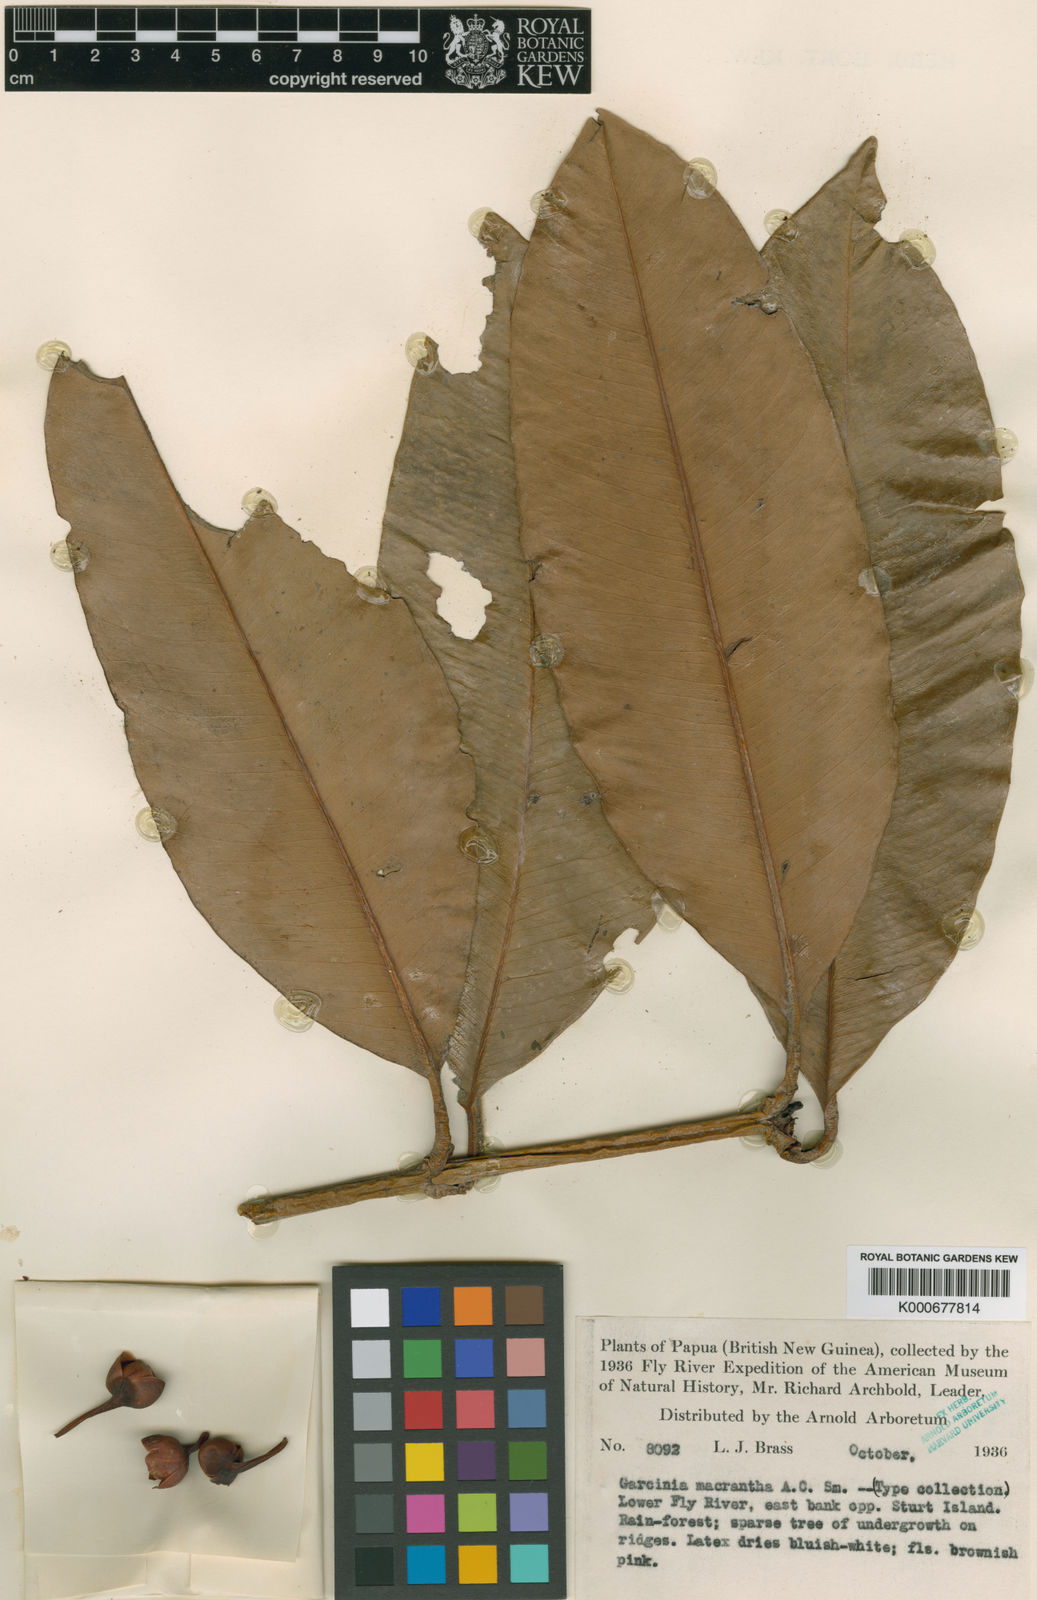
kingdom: Plantae
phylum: Tracheophyta
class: Magnoliopsida
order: Malpighiales
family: Clusiaceae
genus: Garcinia
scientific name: Garcinia macrantha
